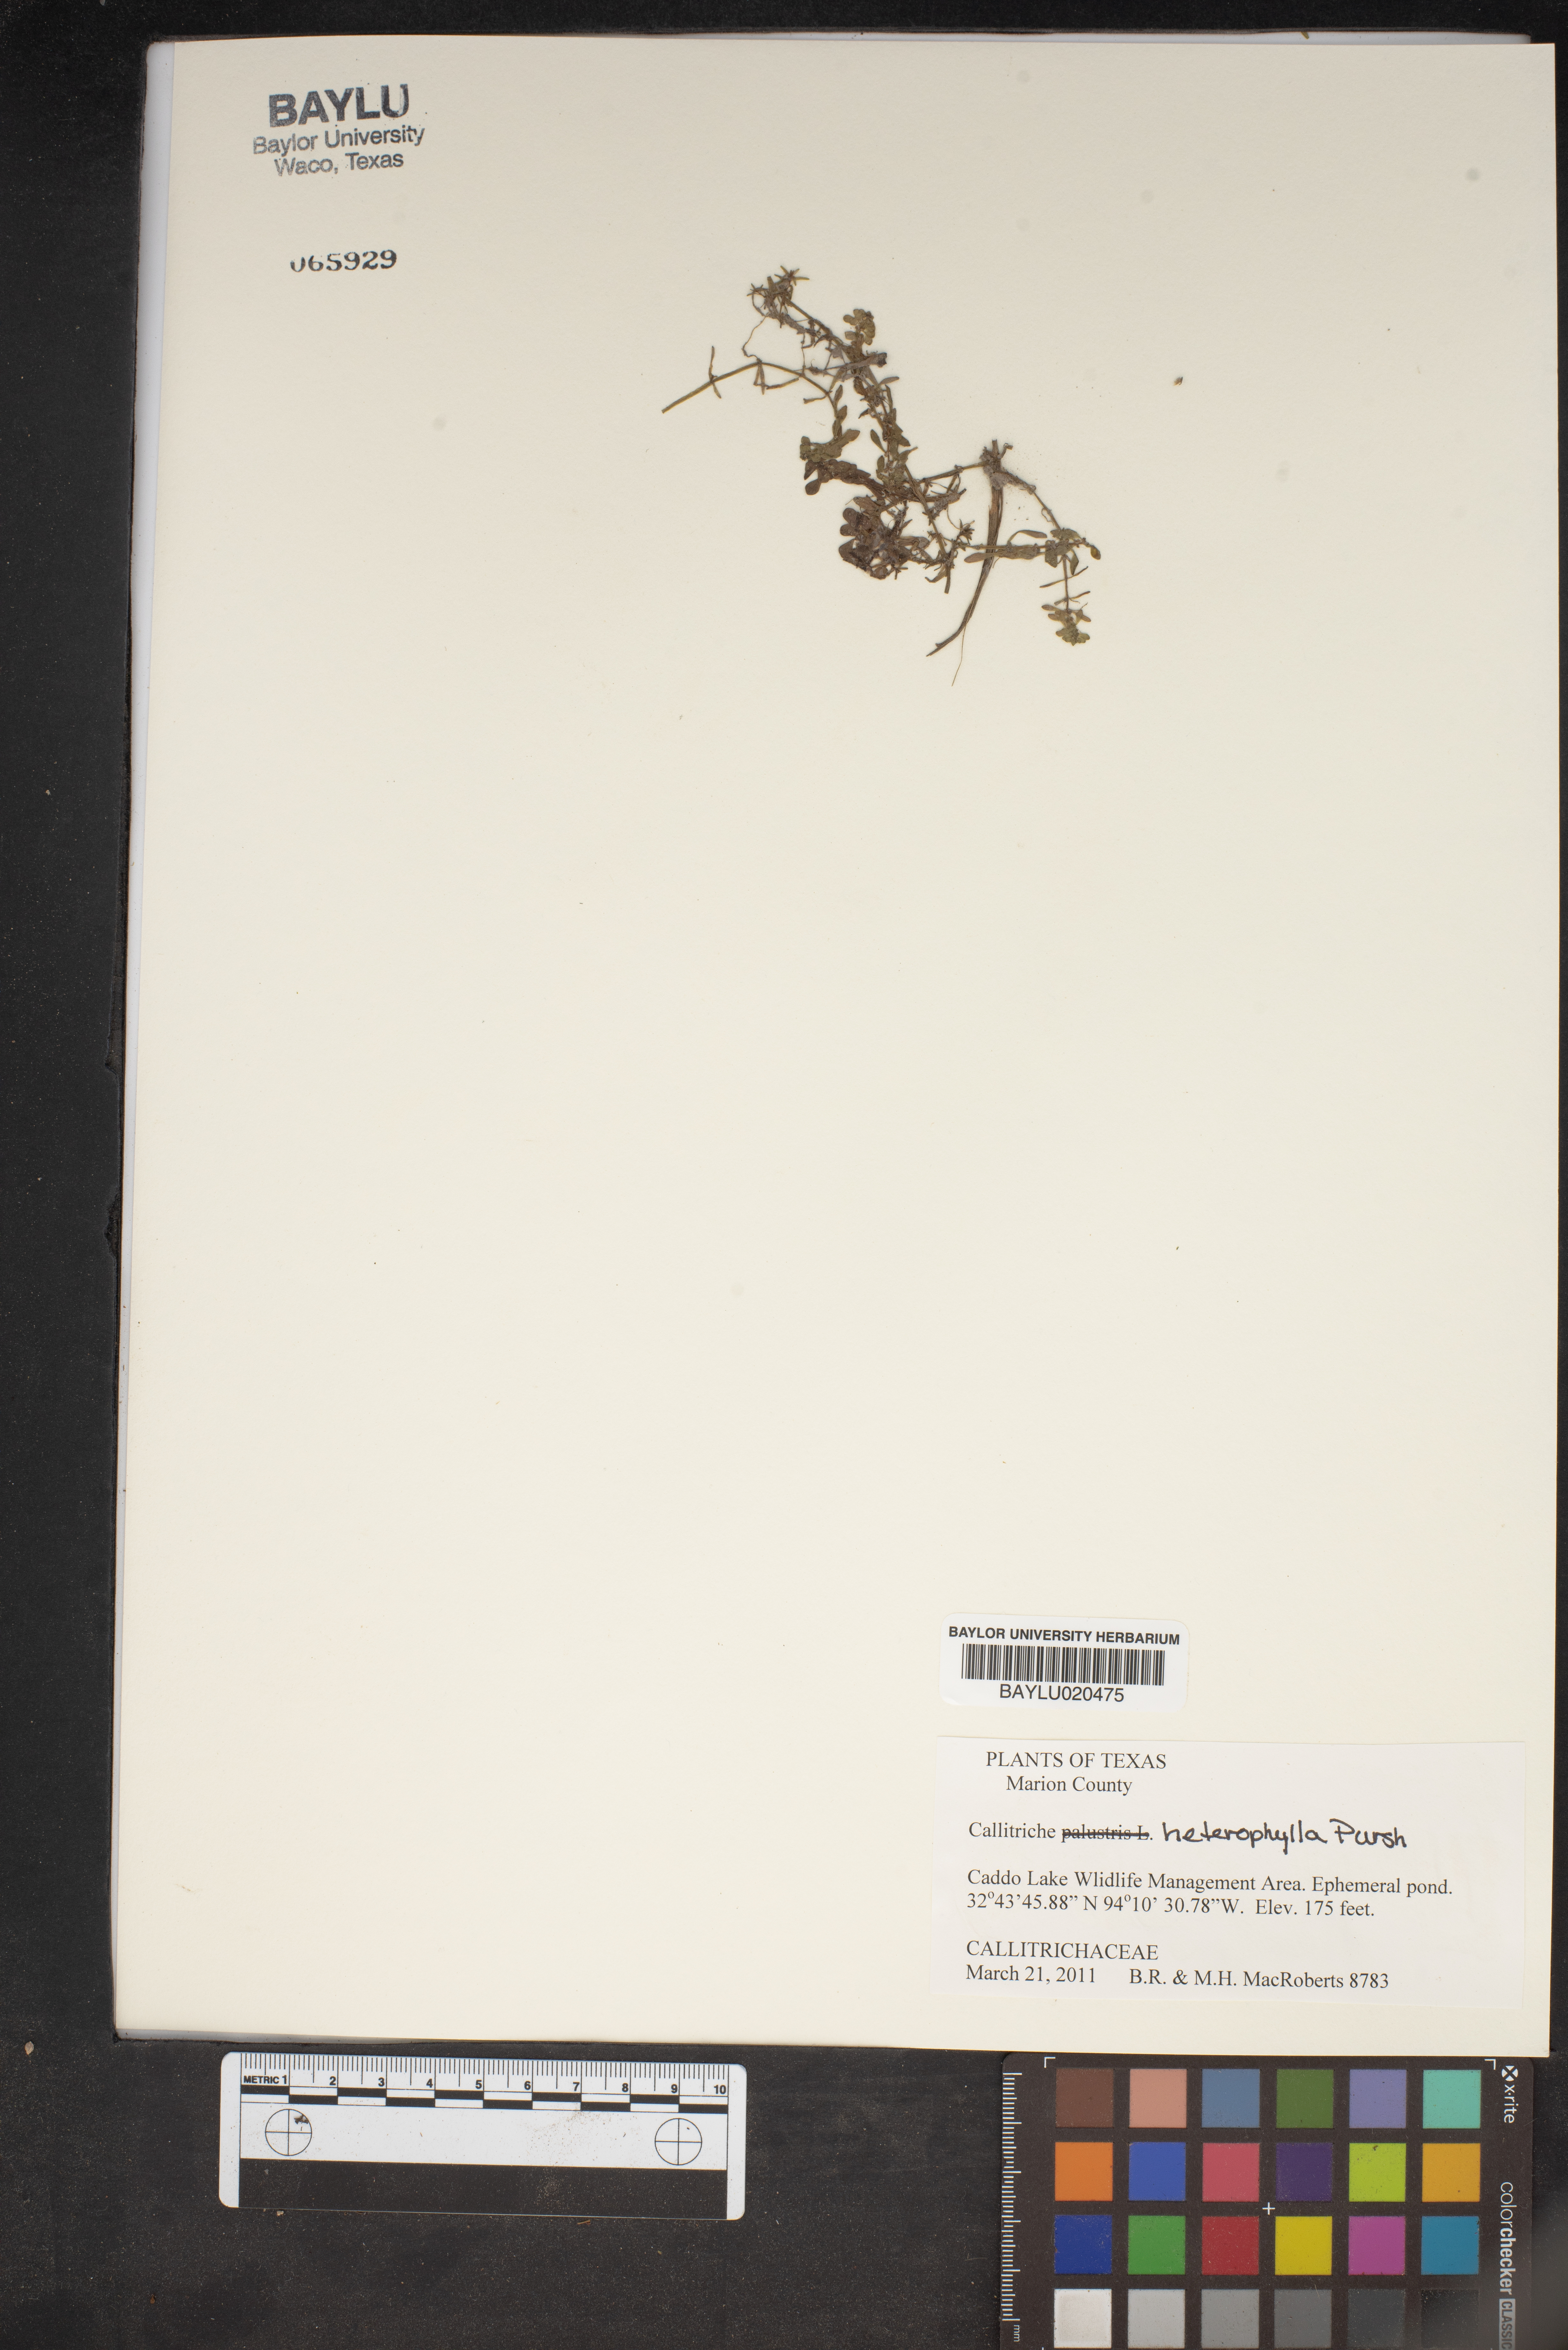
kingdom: Plantae
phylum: Tracheophyta
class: Magnoliopsida
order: Lamiales
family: Plantaginaceae
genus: Callitriche
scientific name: Callitriche heterophylla
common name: Two-headed water-starwort
